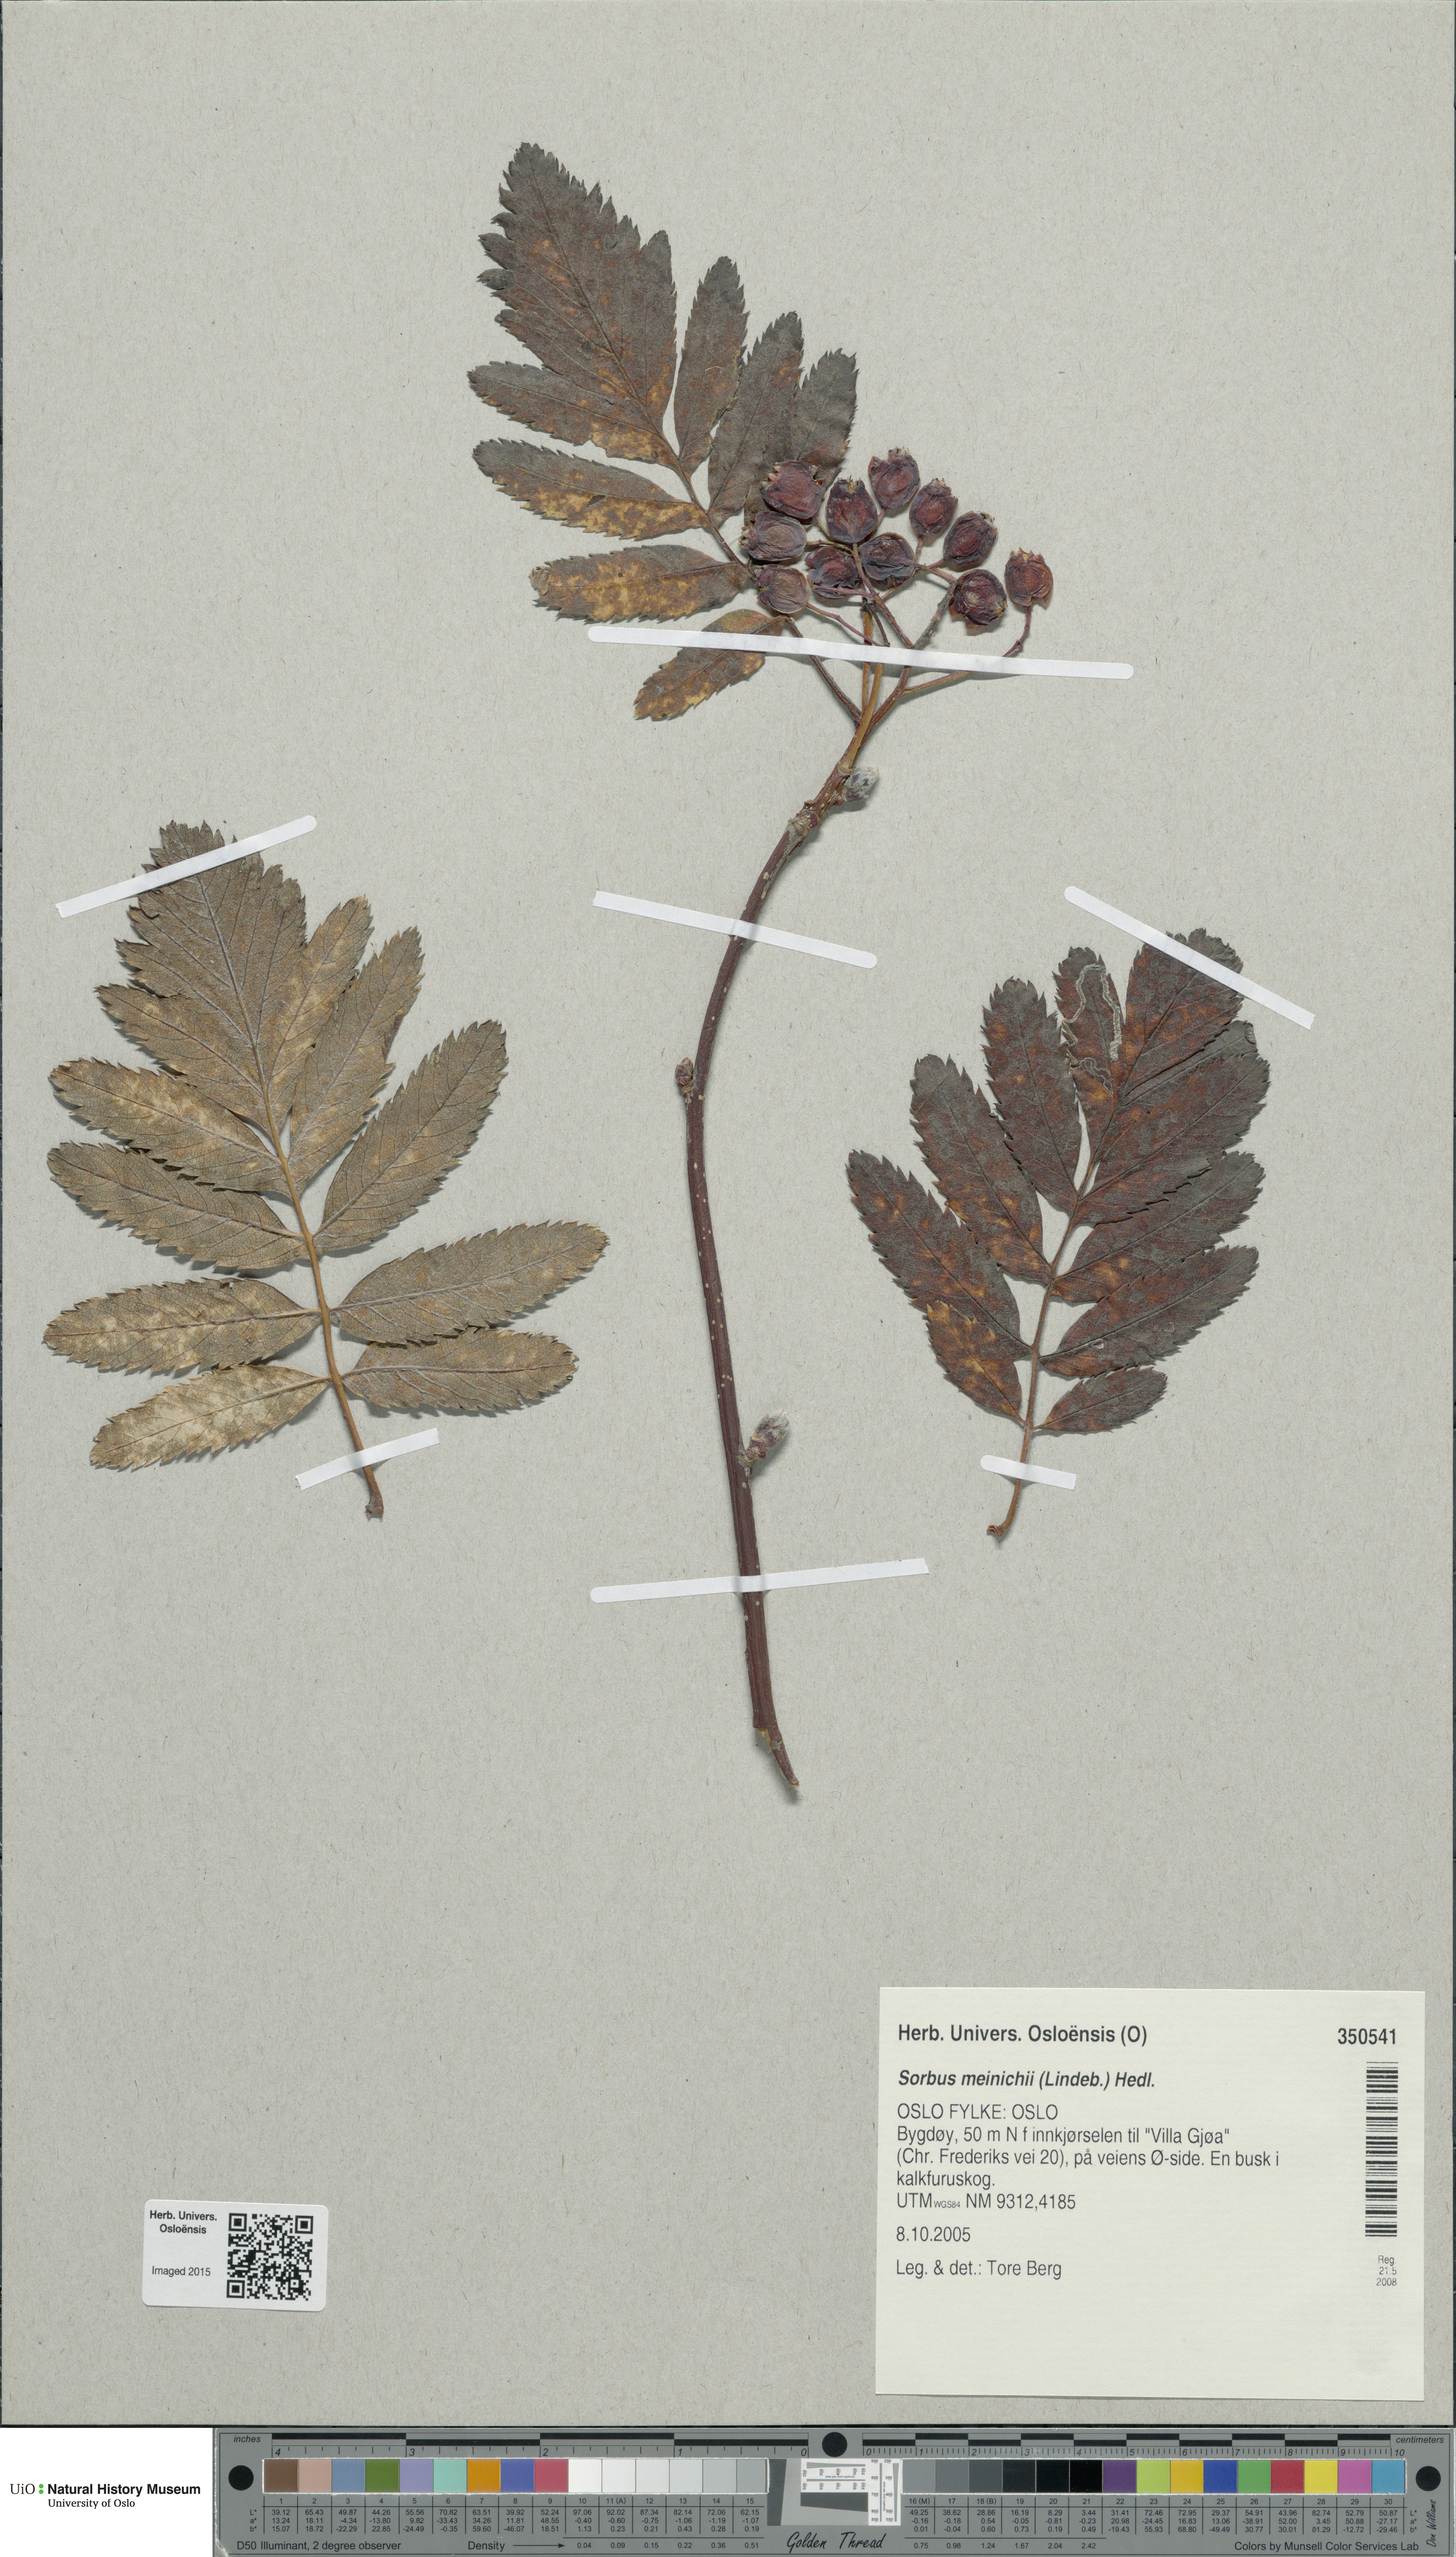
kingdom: Plantae
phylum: Tracheophyta
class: Magnoliopsida
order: Rosales
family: Rosaceae
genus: Hedlundia
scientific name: Hedlundia meinichii
